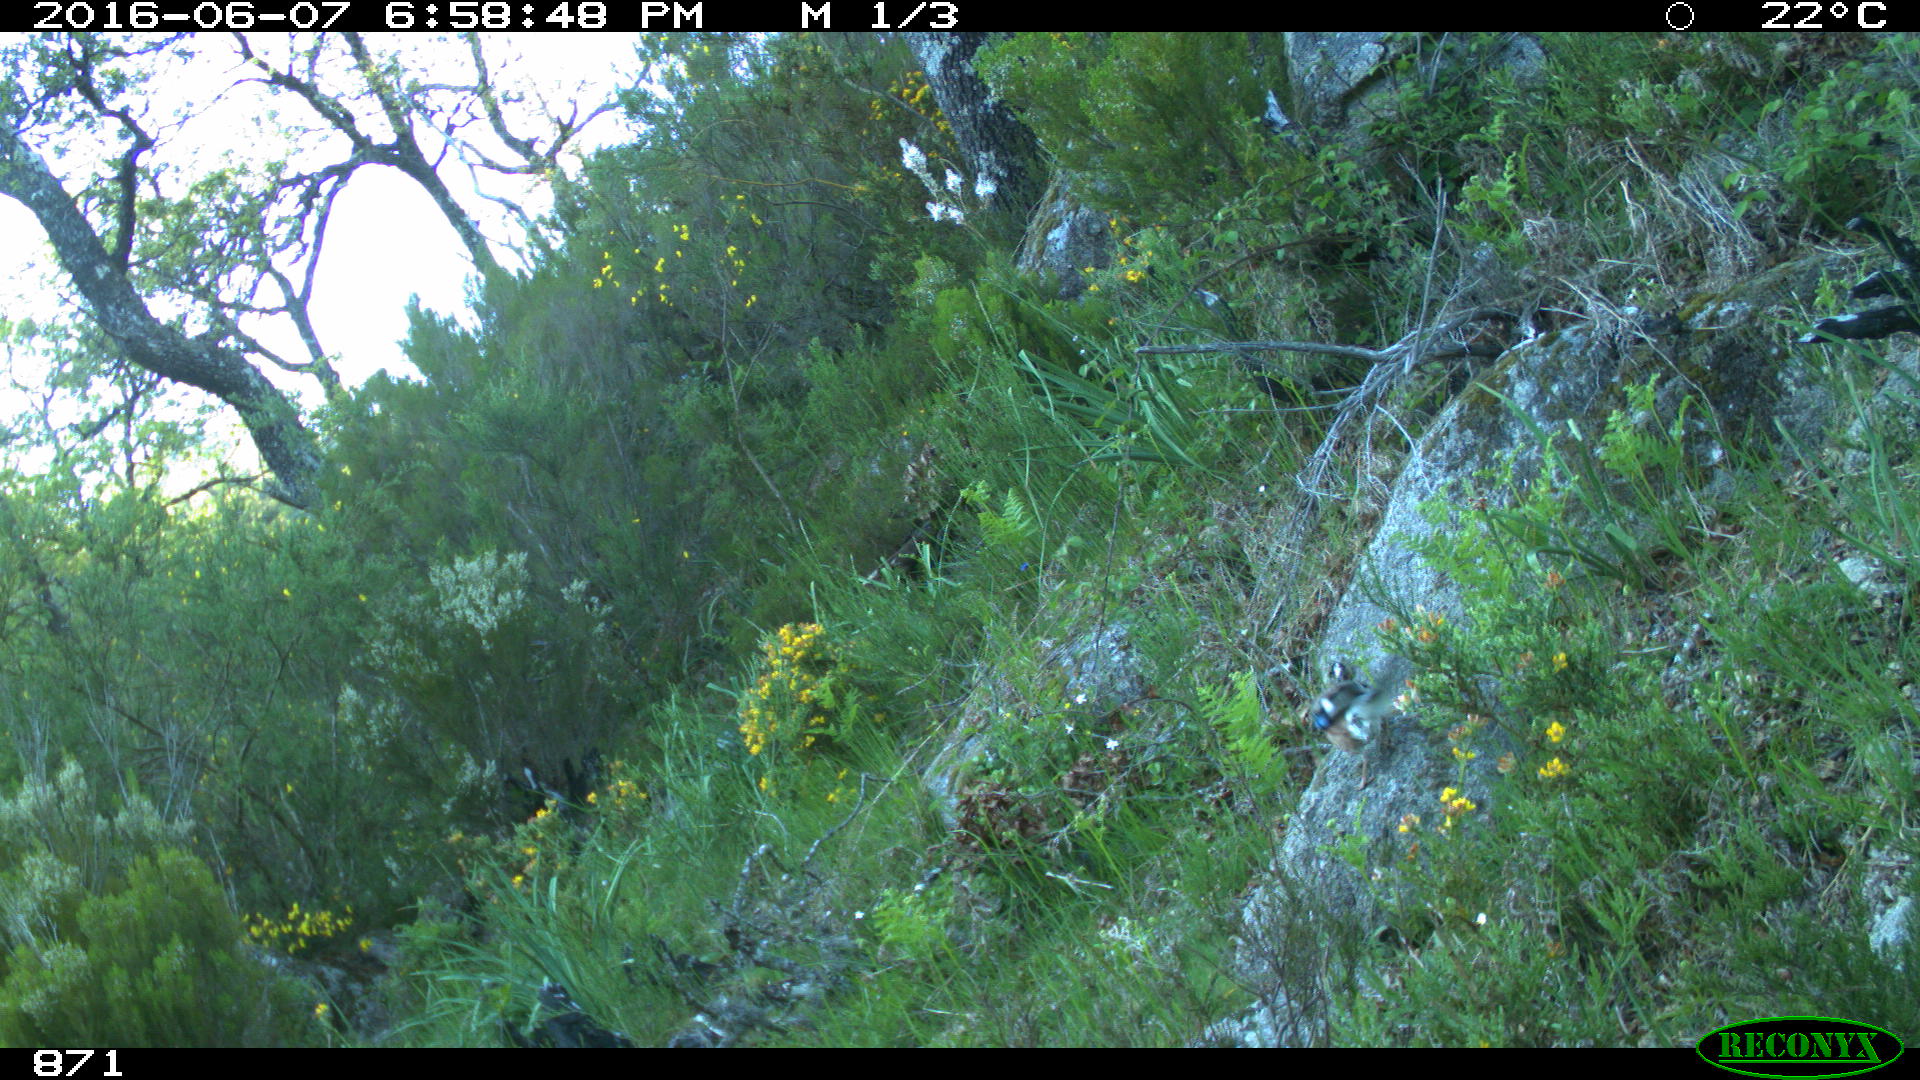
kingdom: Animalia
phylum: Chordata
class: Aves
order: Passeriformes
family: Corvidae
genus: Garrulus
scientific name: Garrulus glandarius
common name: Eurasian jay
